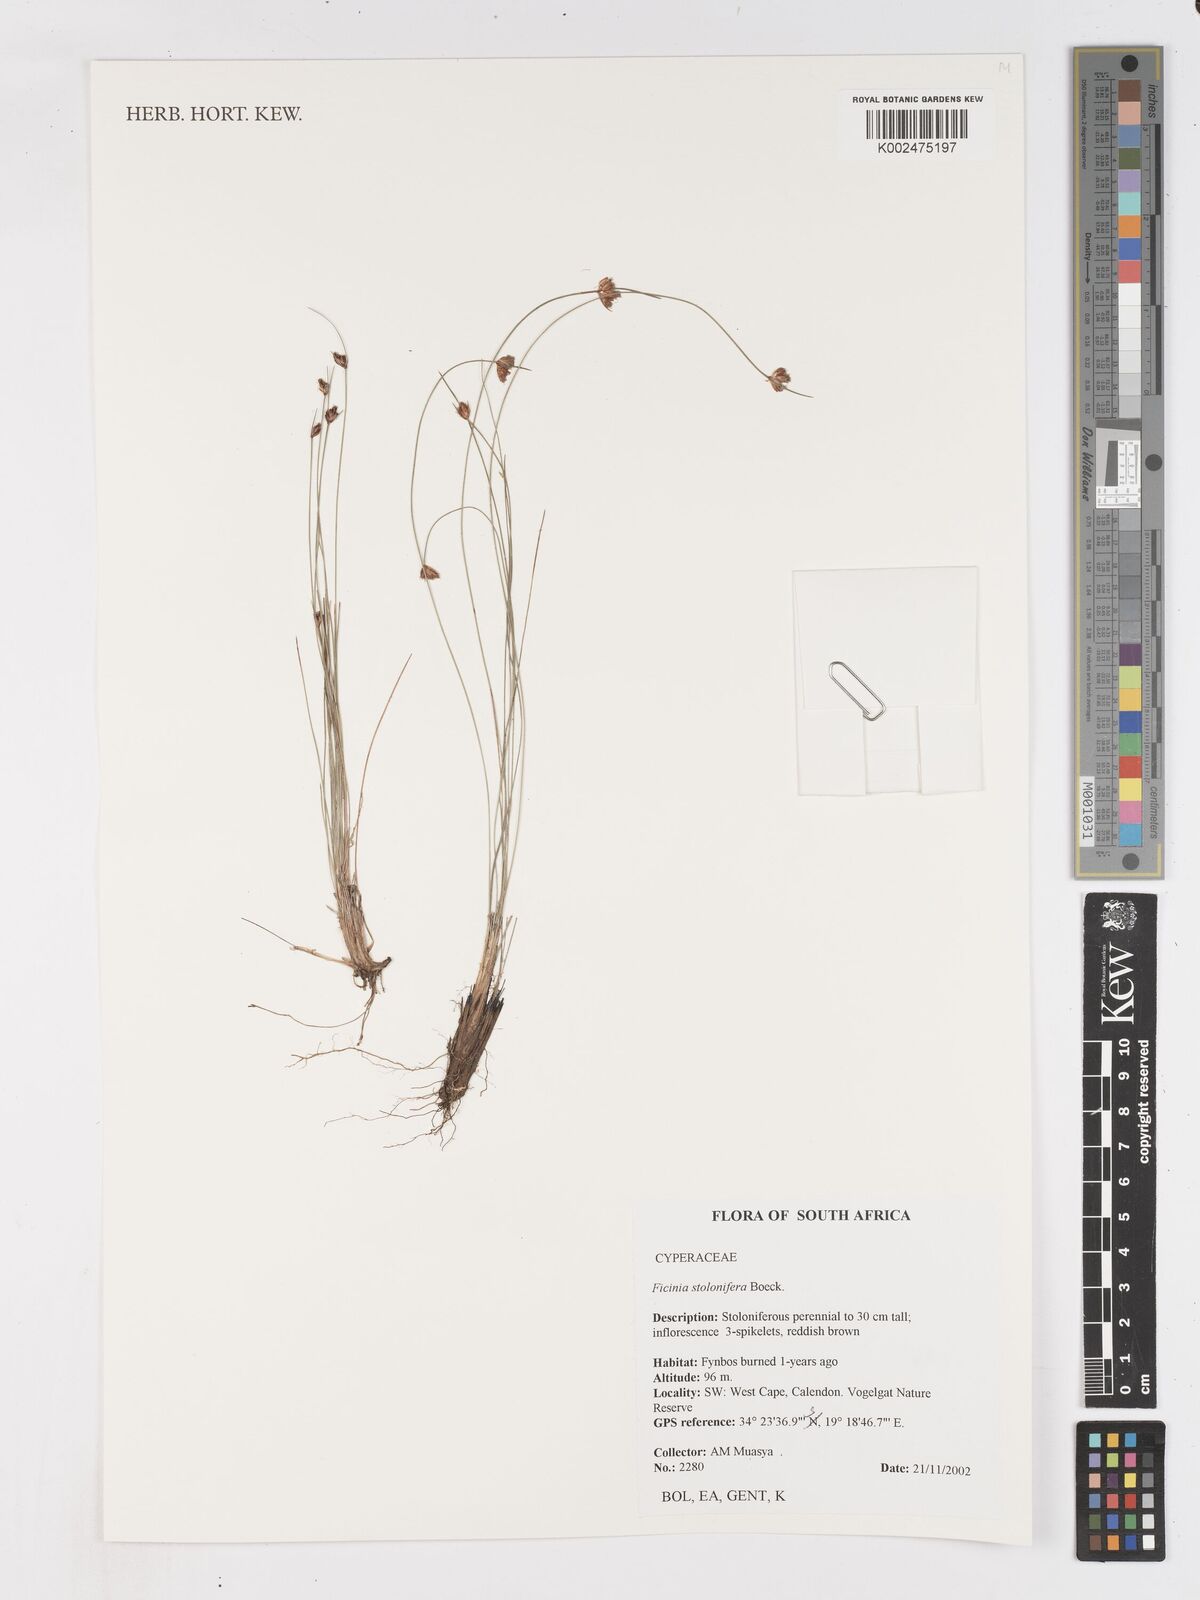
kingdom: Plantae
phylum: Tracheophyta
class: Liliopsida
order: Poales
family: Cyperaceae
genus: Ficinia
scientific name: Ficinia stolonifera
